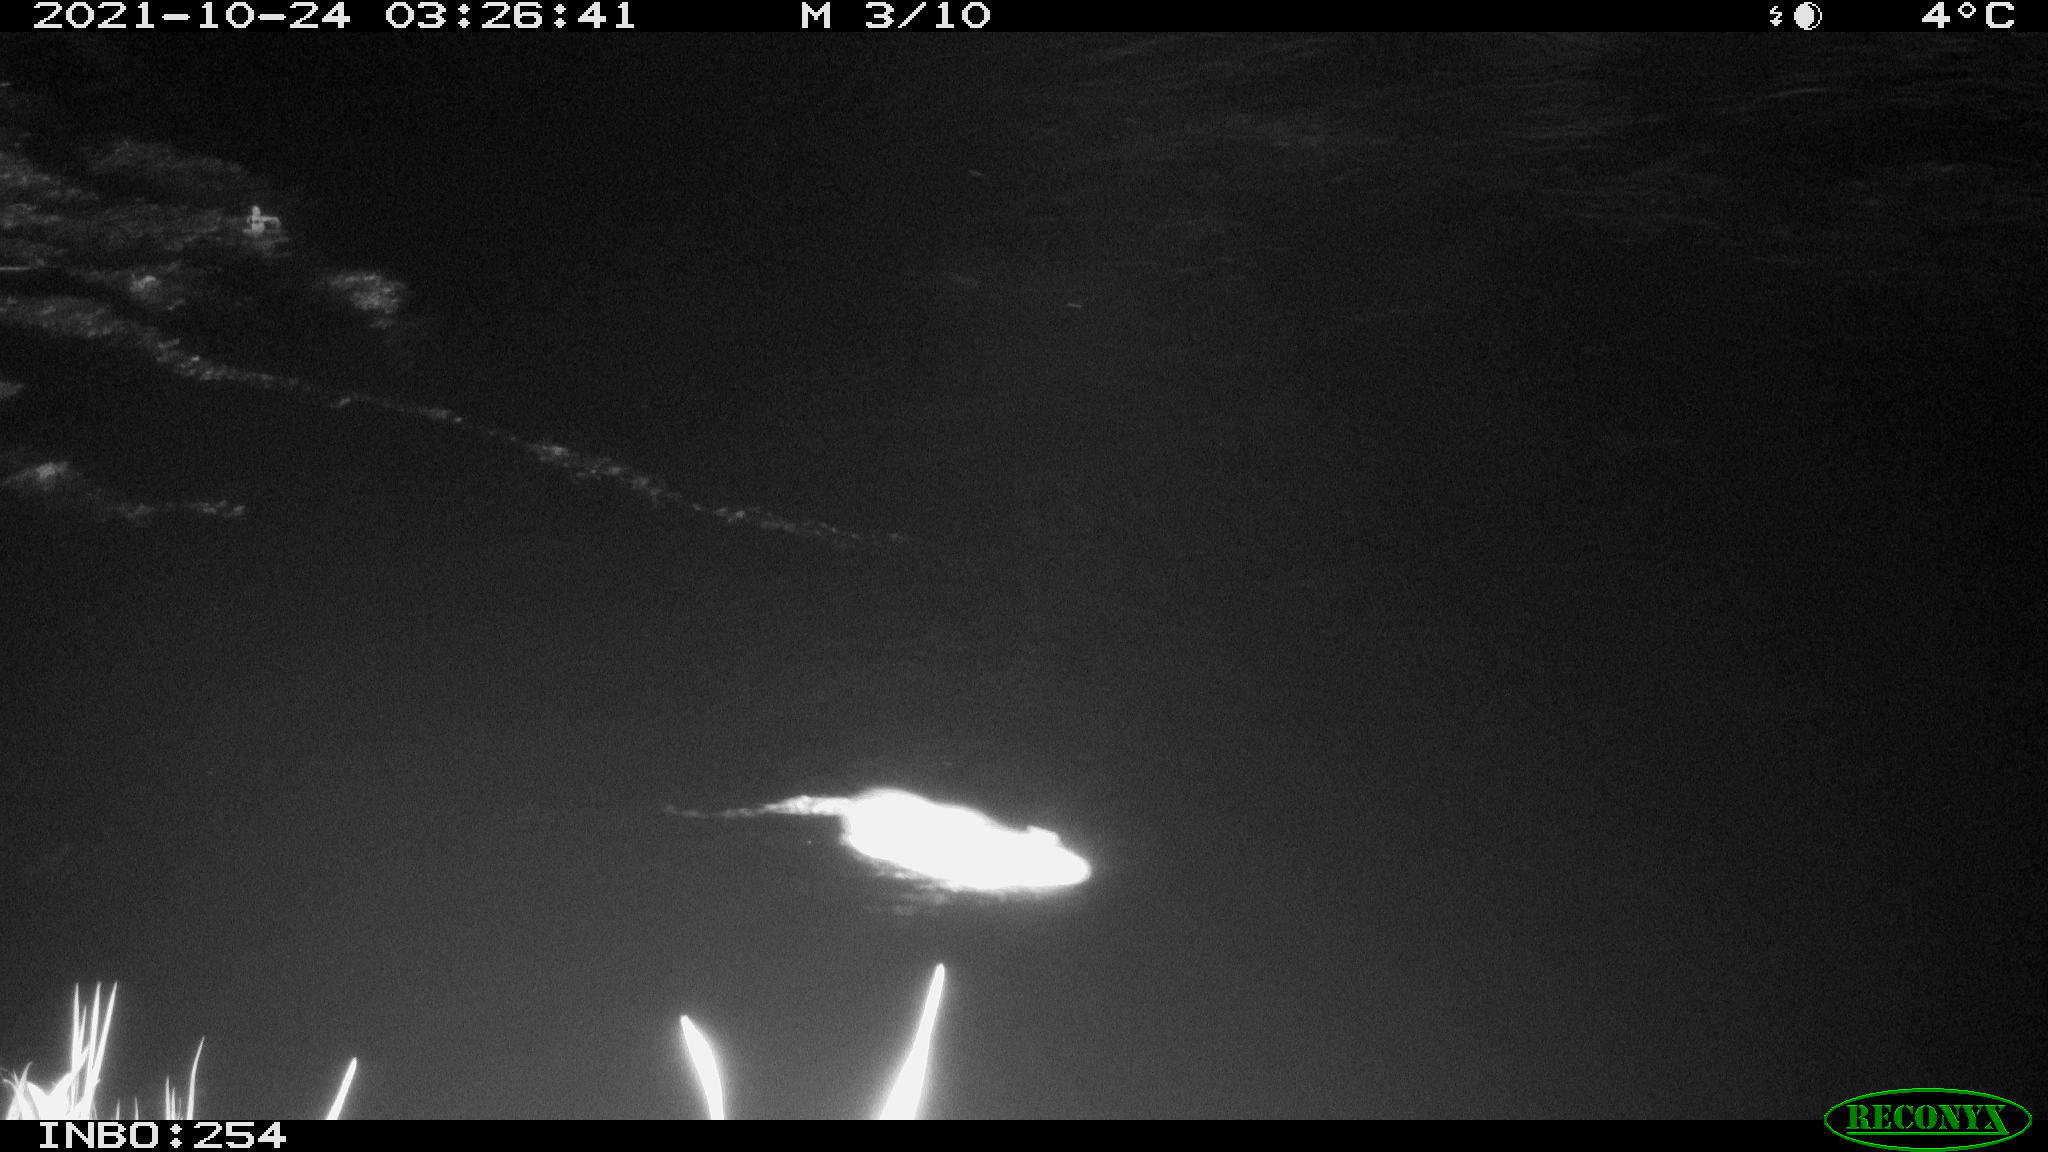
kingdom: Animalia
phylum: Chordata
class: Mammalia
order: Rodentia
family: Muridae
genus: Rattus
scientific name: Rattus norvegicus
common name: Brown rat
